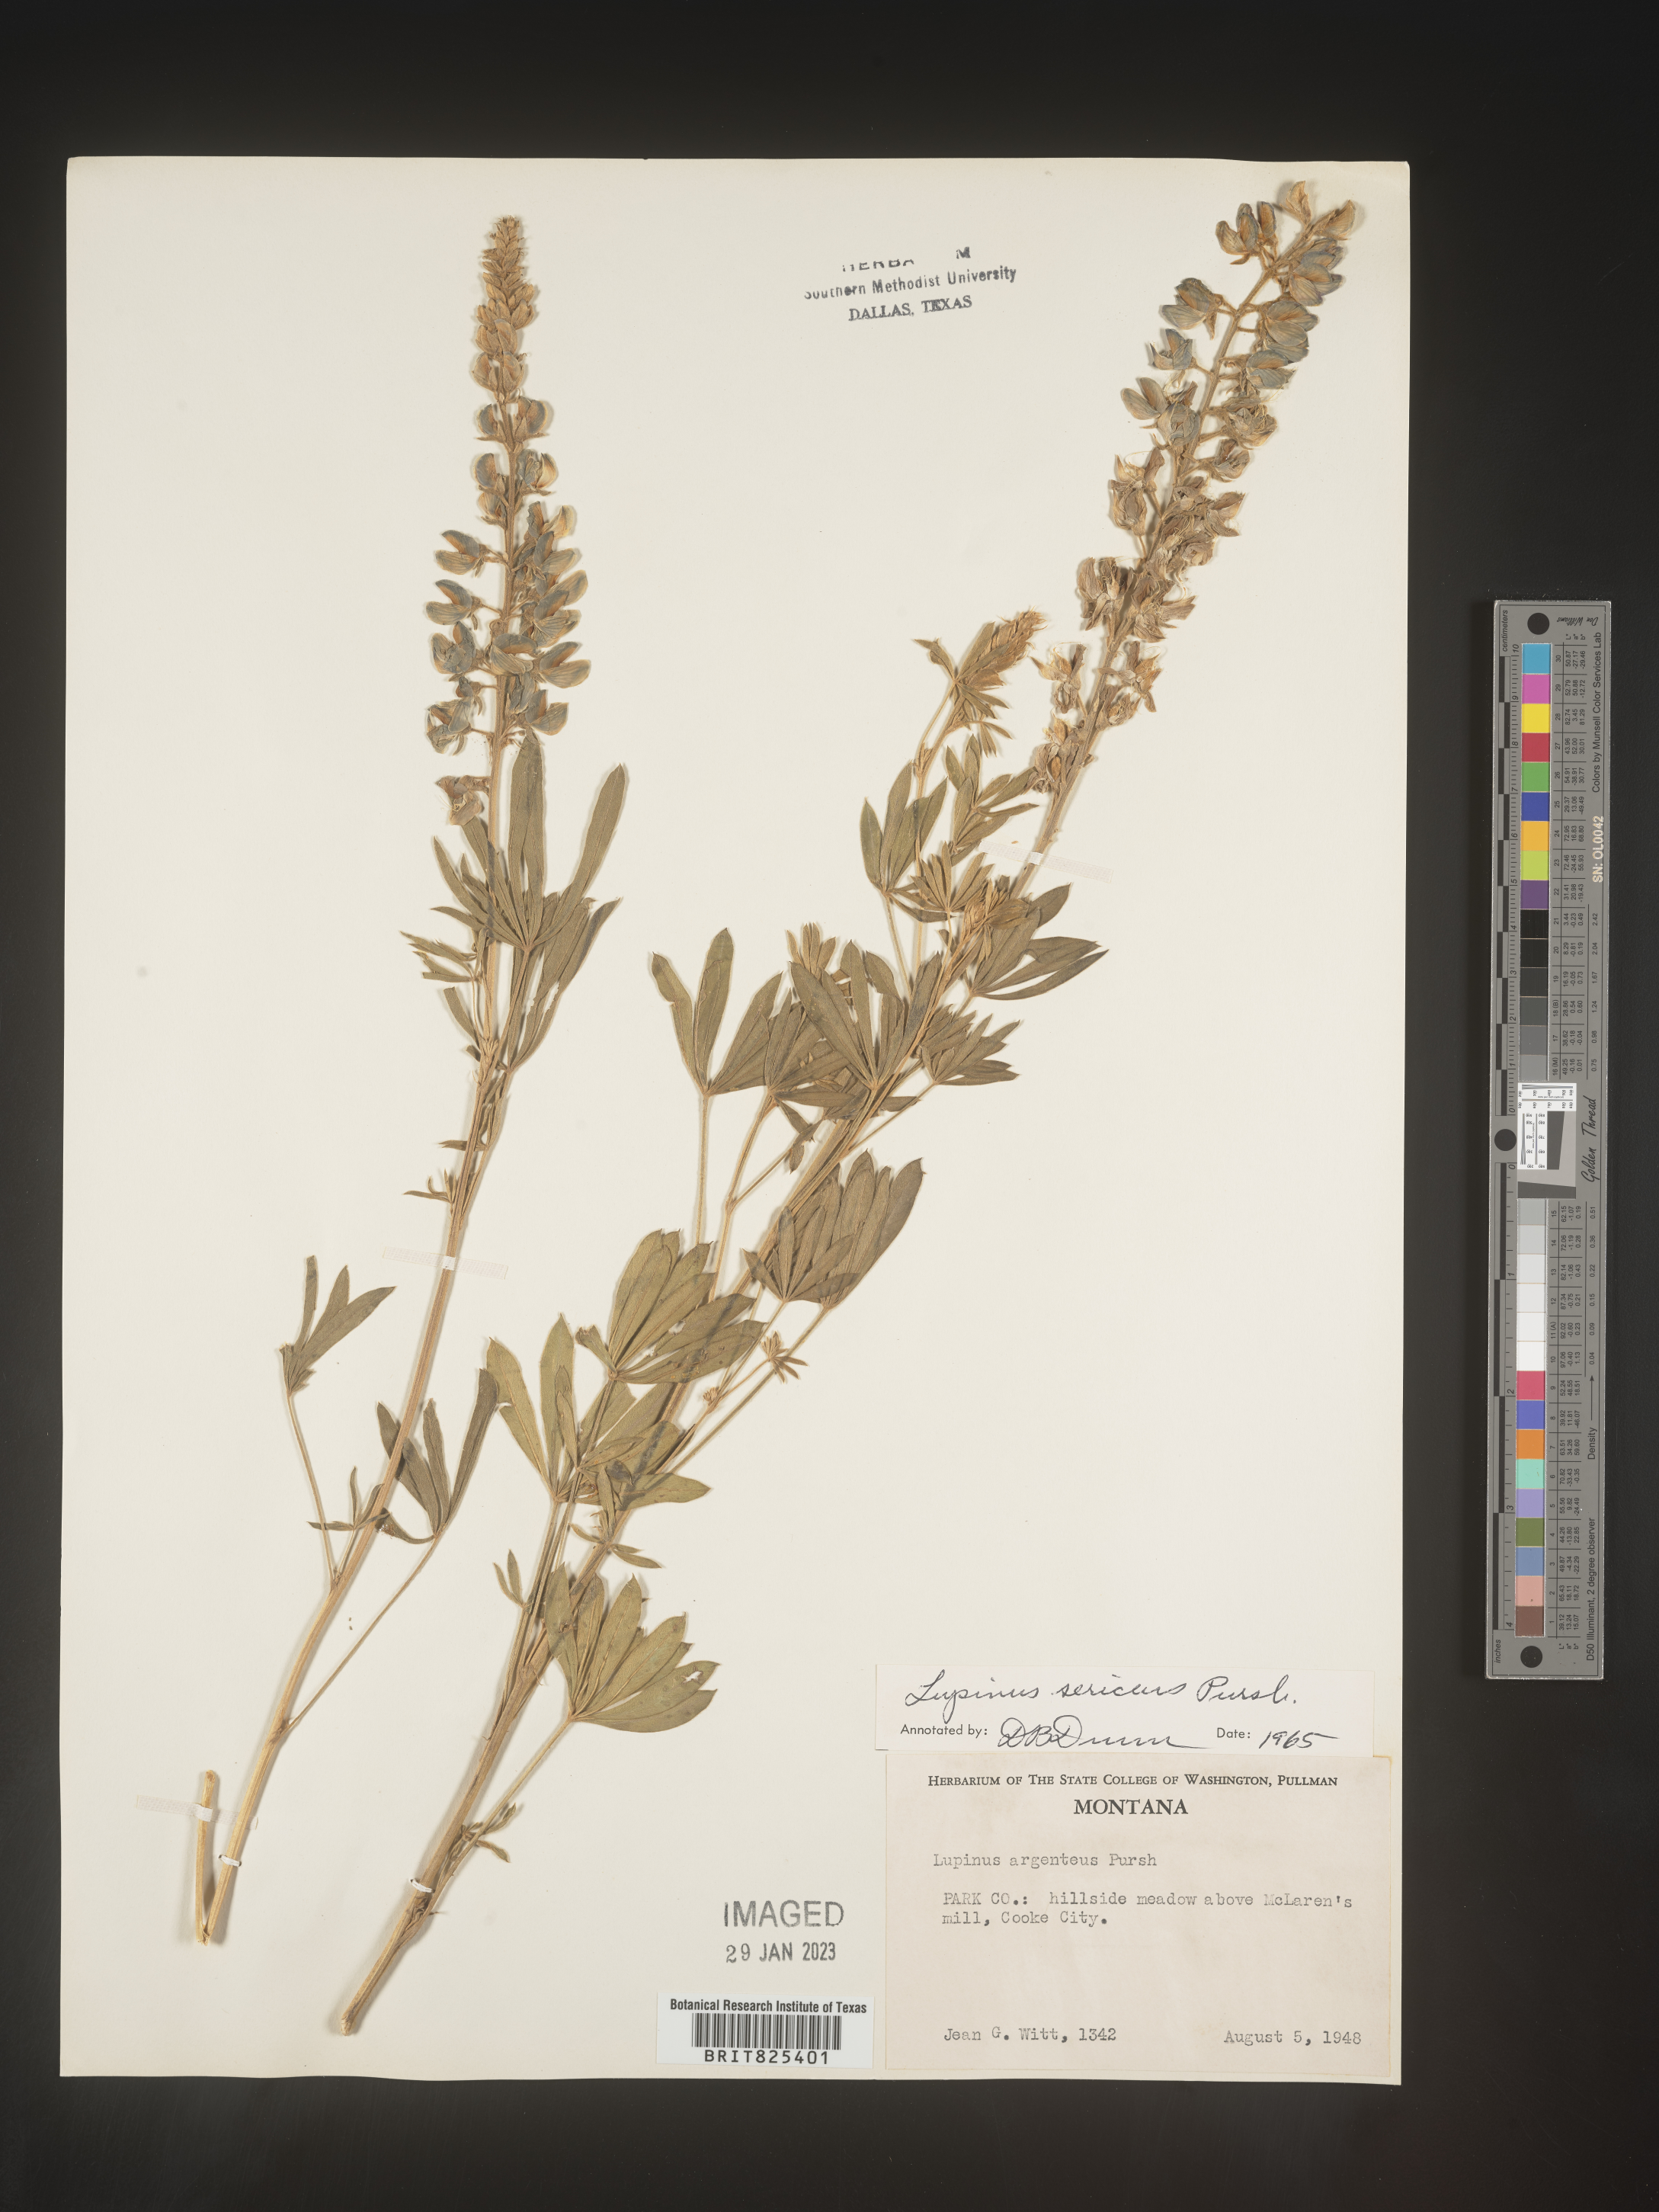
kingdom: Plantae
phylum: Tracheophyta
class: Magnoliopsida
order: Fabales
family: Fabaceae
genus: Lupinus
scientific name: Lupinus sericeus
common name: Silky lupine
